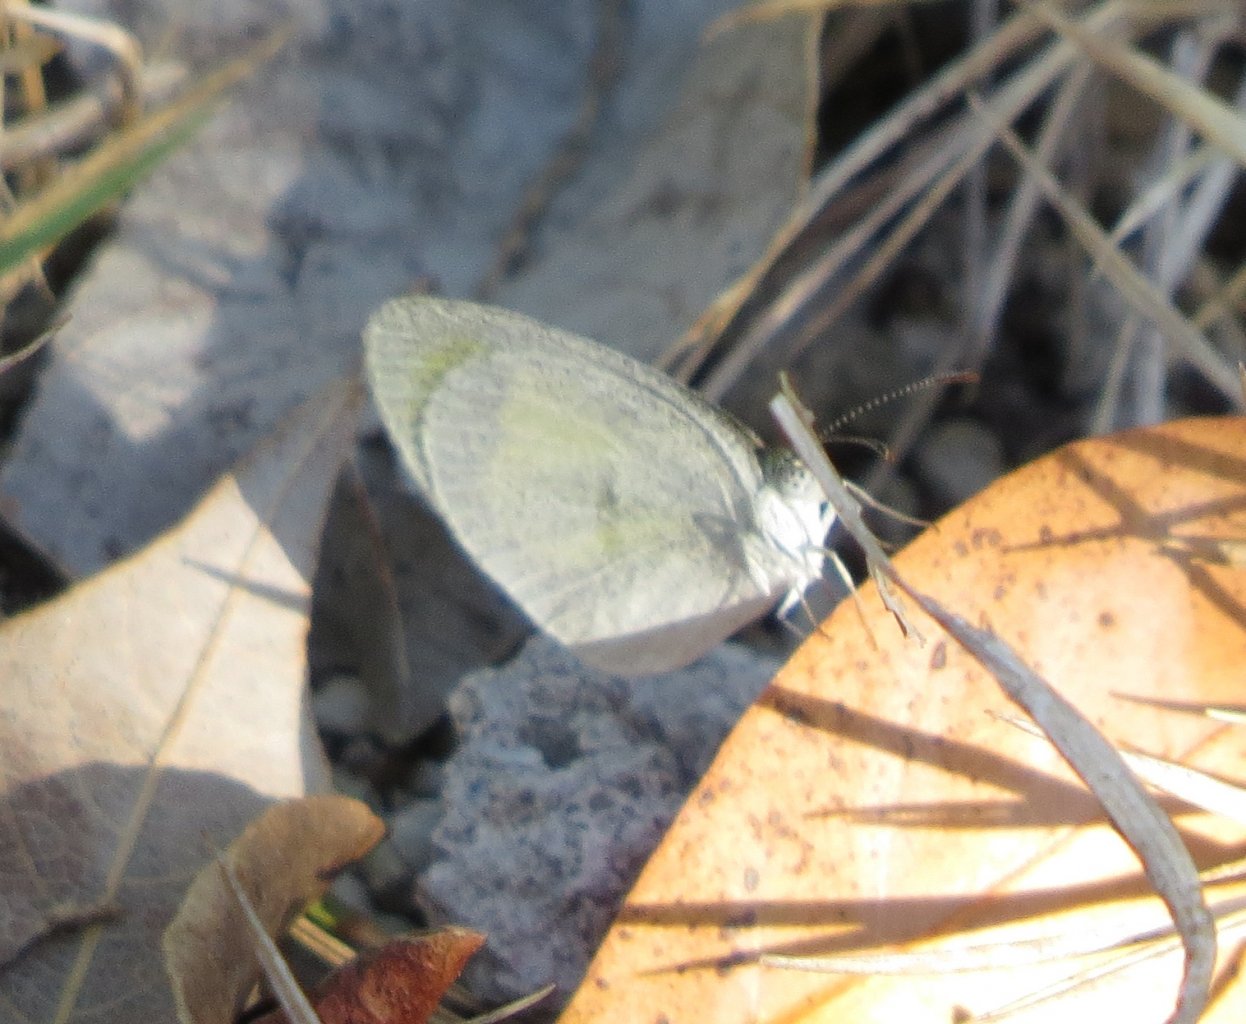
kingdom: Animalia
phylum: Arthropoda
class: Insecta
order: Lepidoptera
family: Pieridae
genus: Eurema
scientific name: Eurema daira
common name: Barred Yellow
